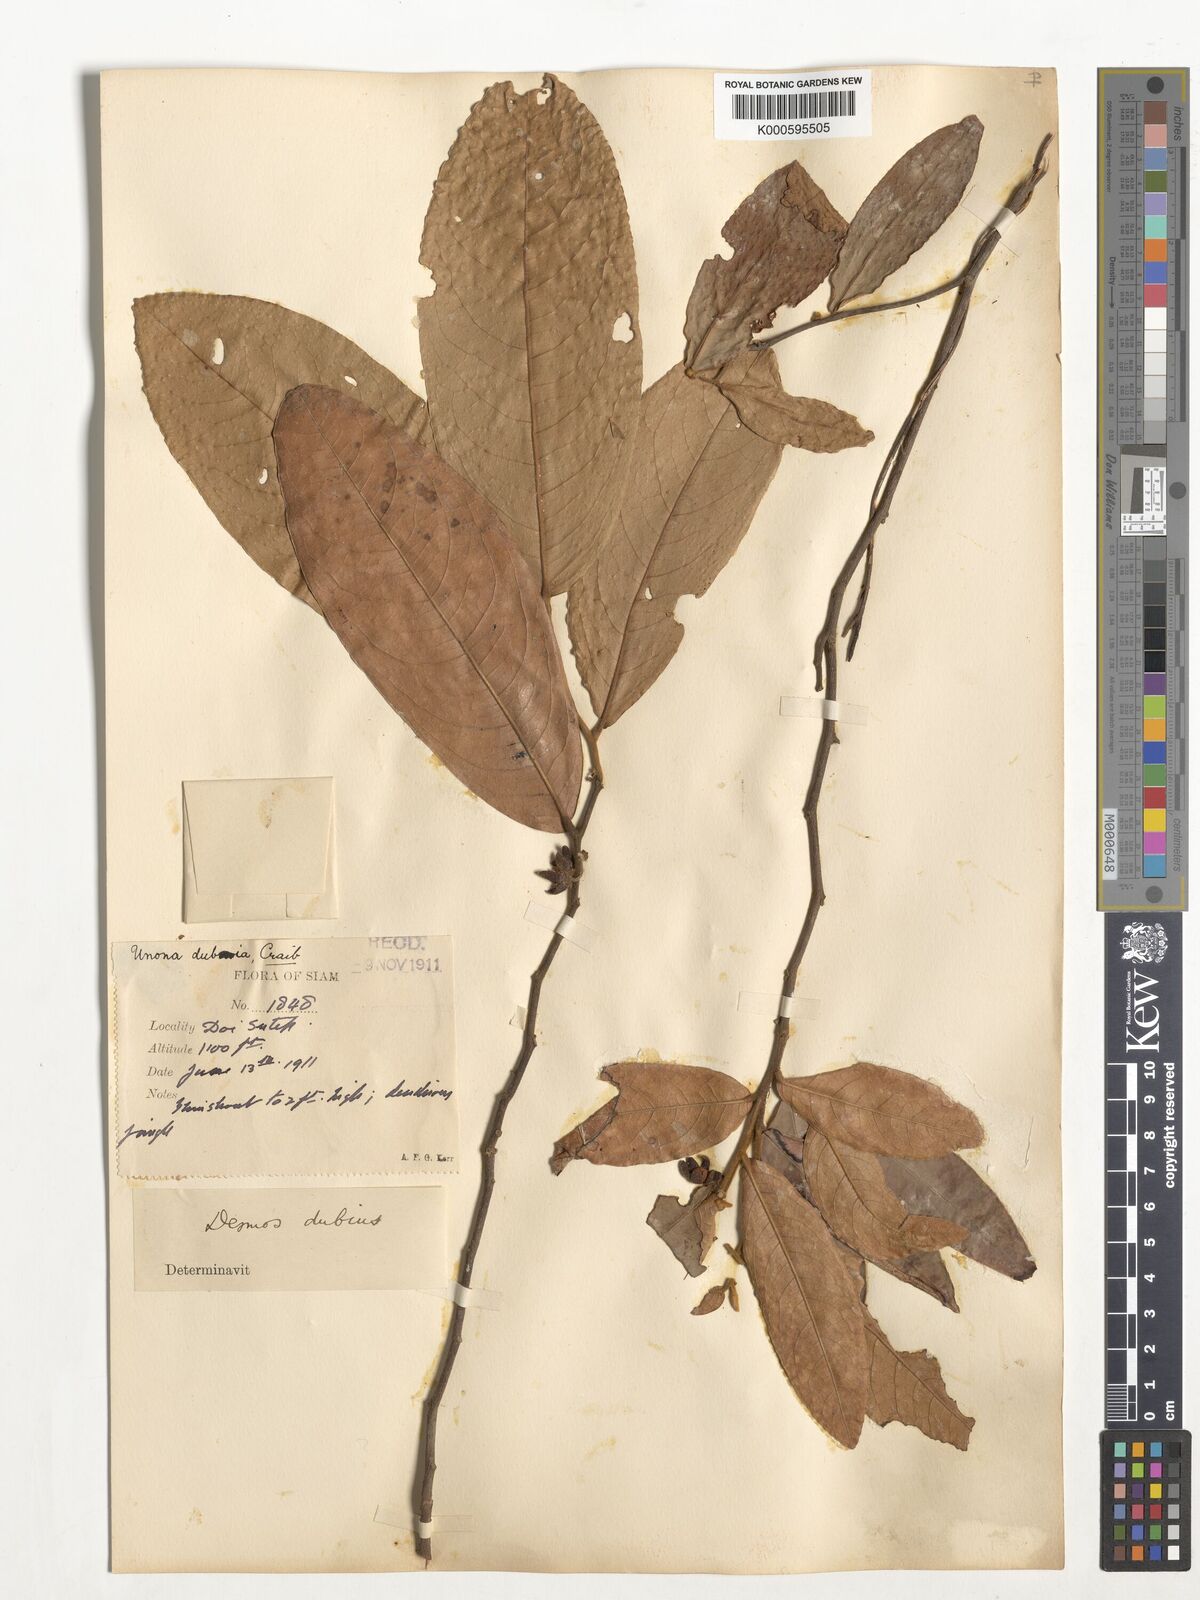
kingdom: Plantae
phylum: Tracheophyta
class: Magnoliopsida
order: Magnoliales
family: Annonaceae
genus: Polyalthia
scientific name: Polyalthia debilis
